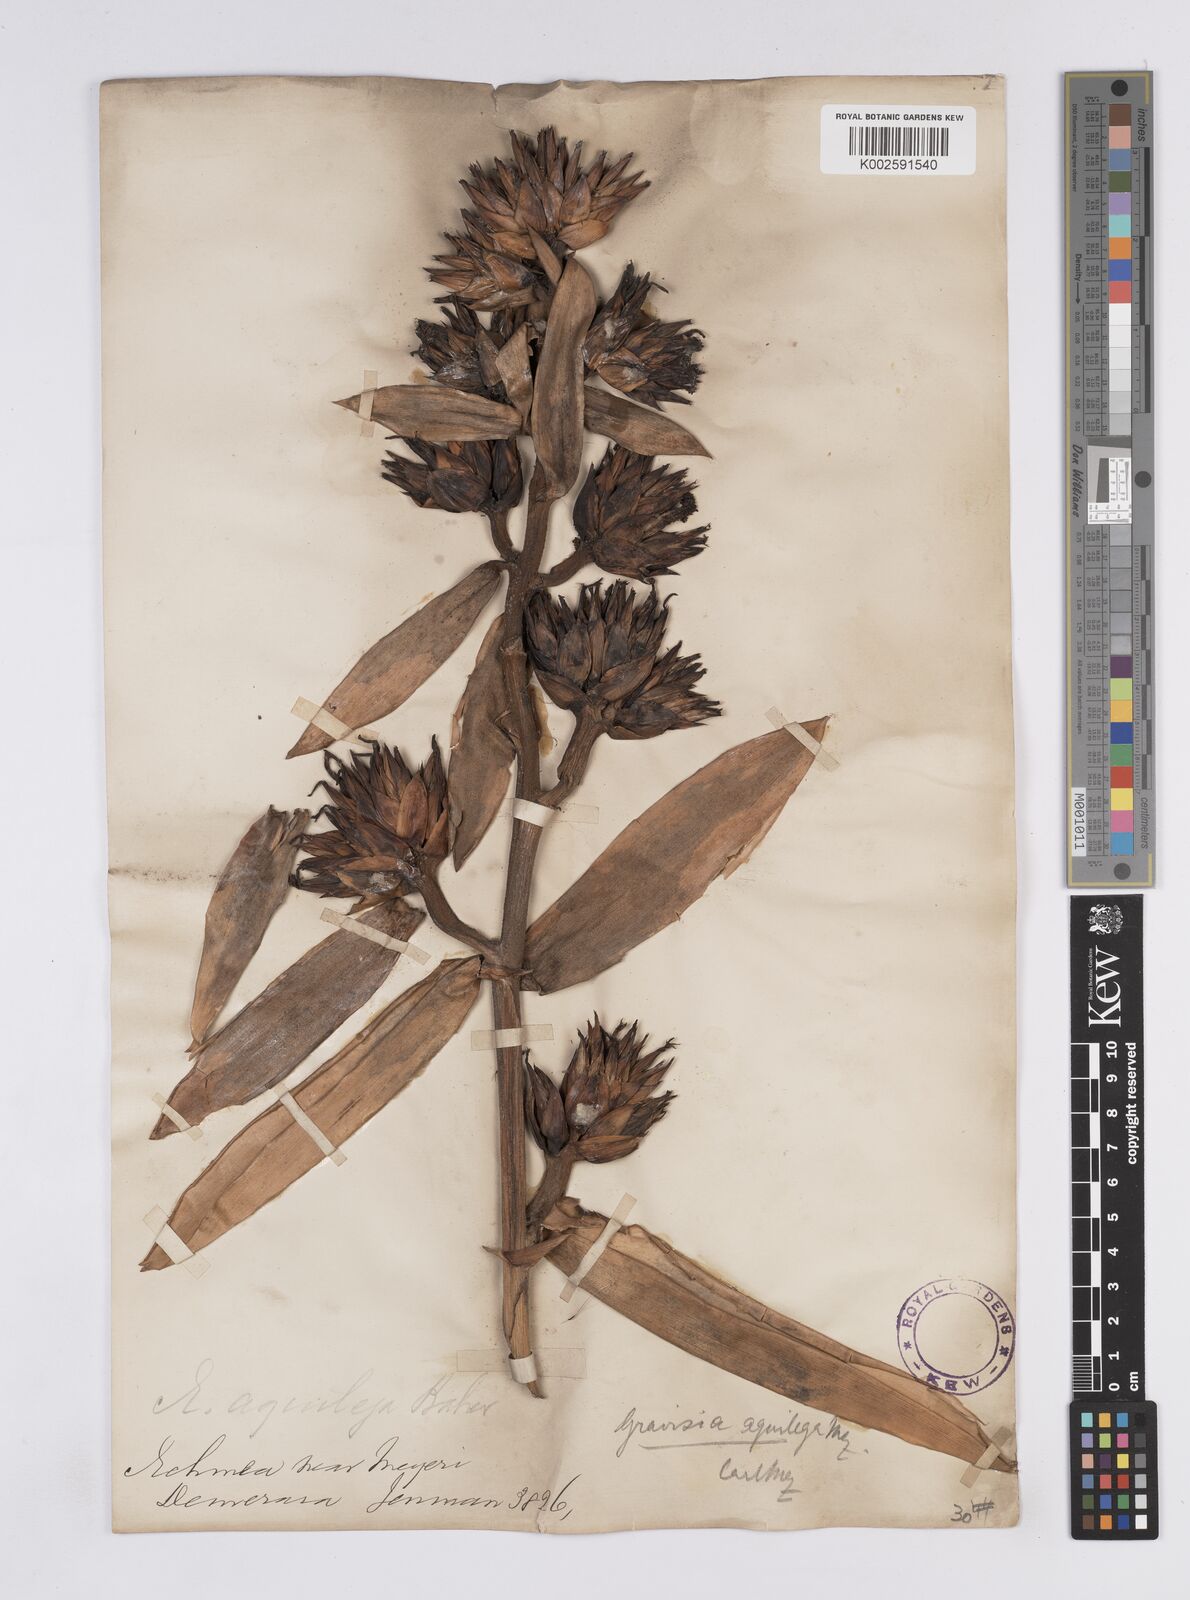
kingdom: Plantae
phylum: Tracheophyta
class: Liliopsida
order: Poales
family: Bromeliaceae
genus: Aechmea
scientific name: Aechmea aquilega
